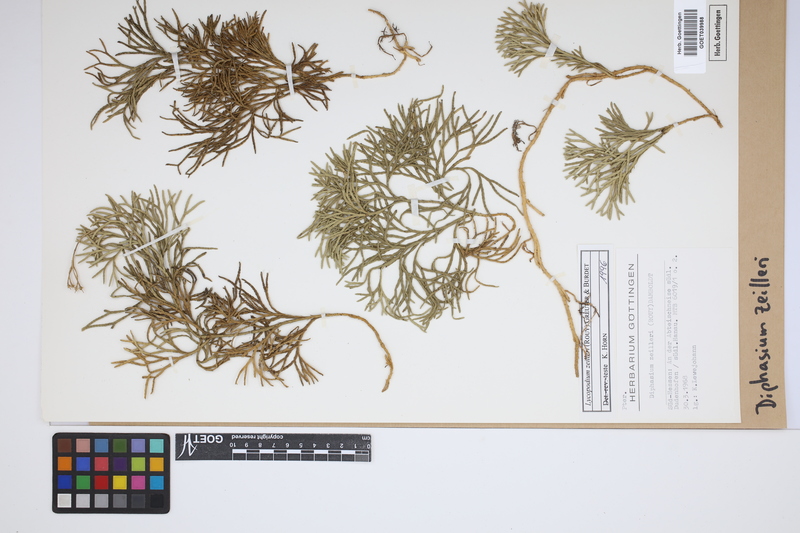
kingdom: Plantae
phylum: Tracheophyta
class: Lycopodiopsida
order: Lycopodiales
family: Lycopodiaceae
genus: Diphasiastrum
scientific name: Diphasiastrum zeilleri
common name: Zeiller's clubmoss
